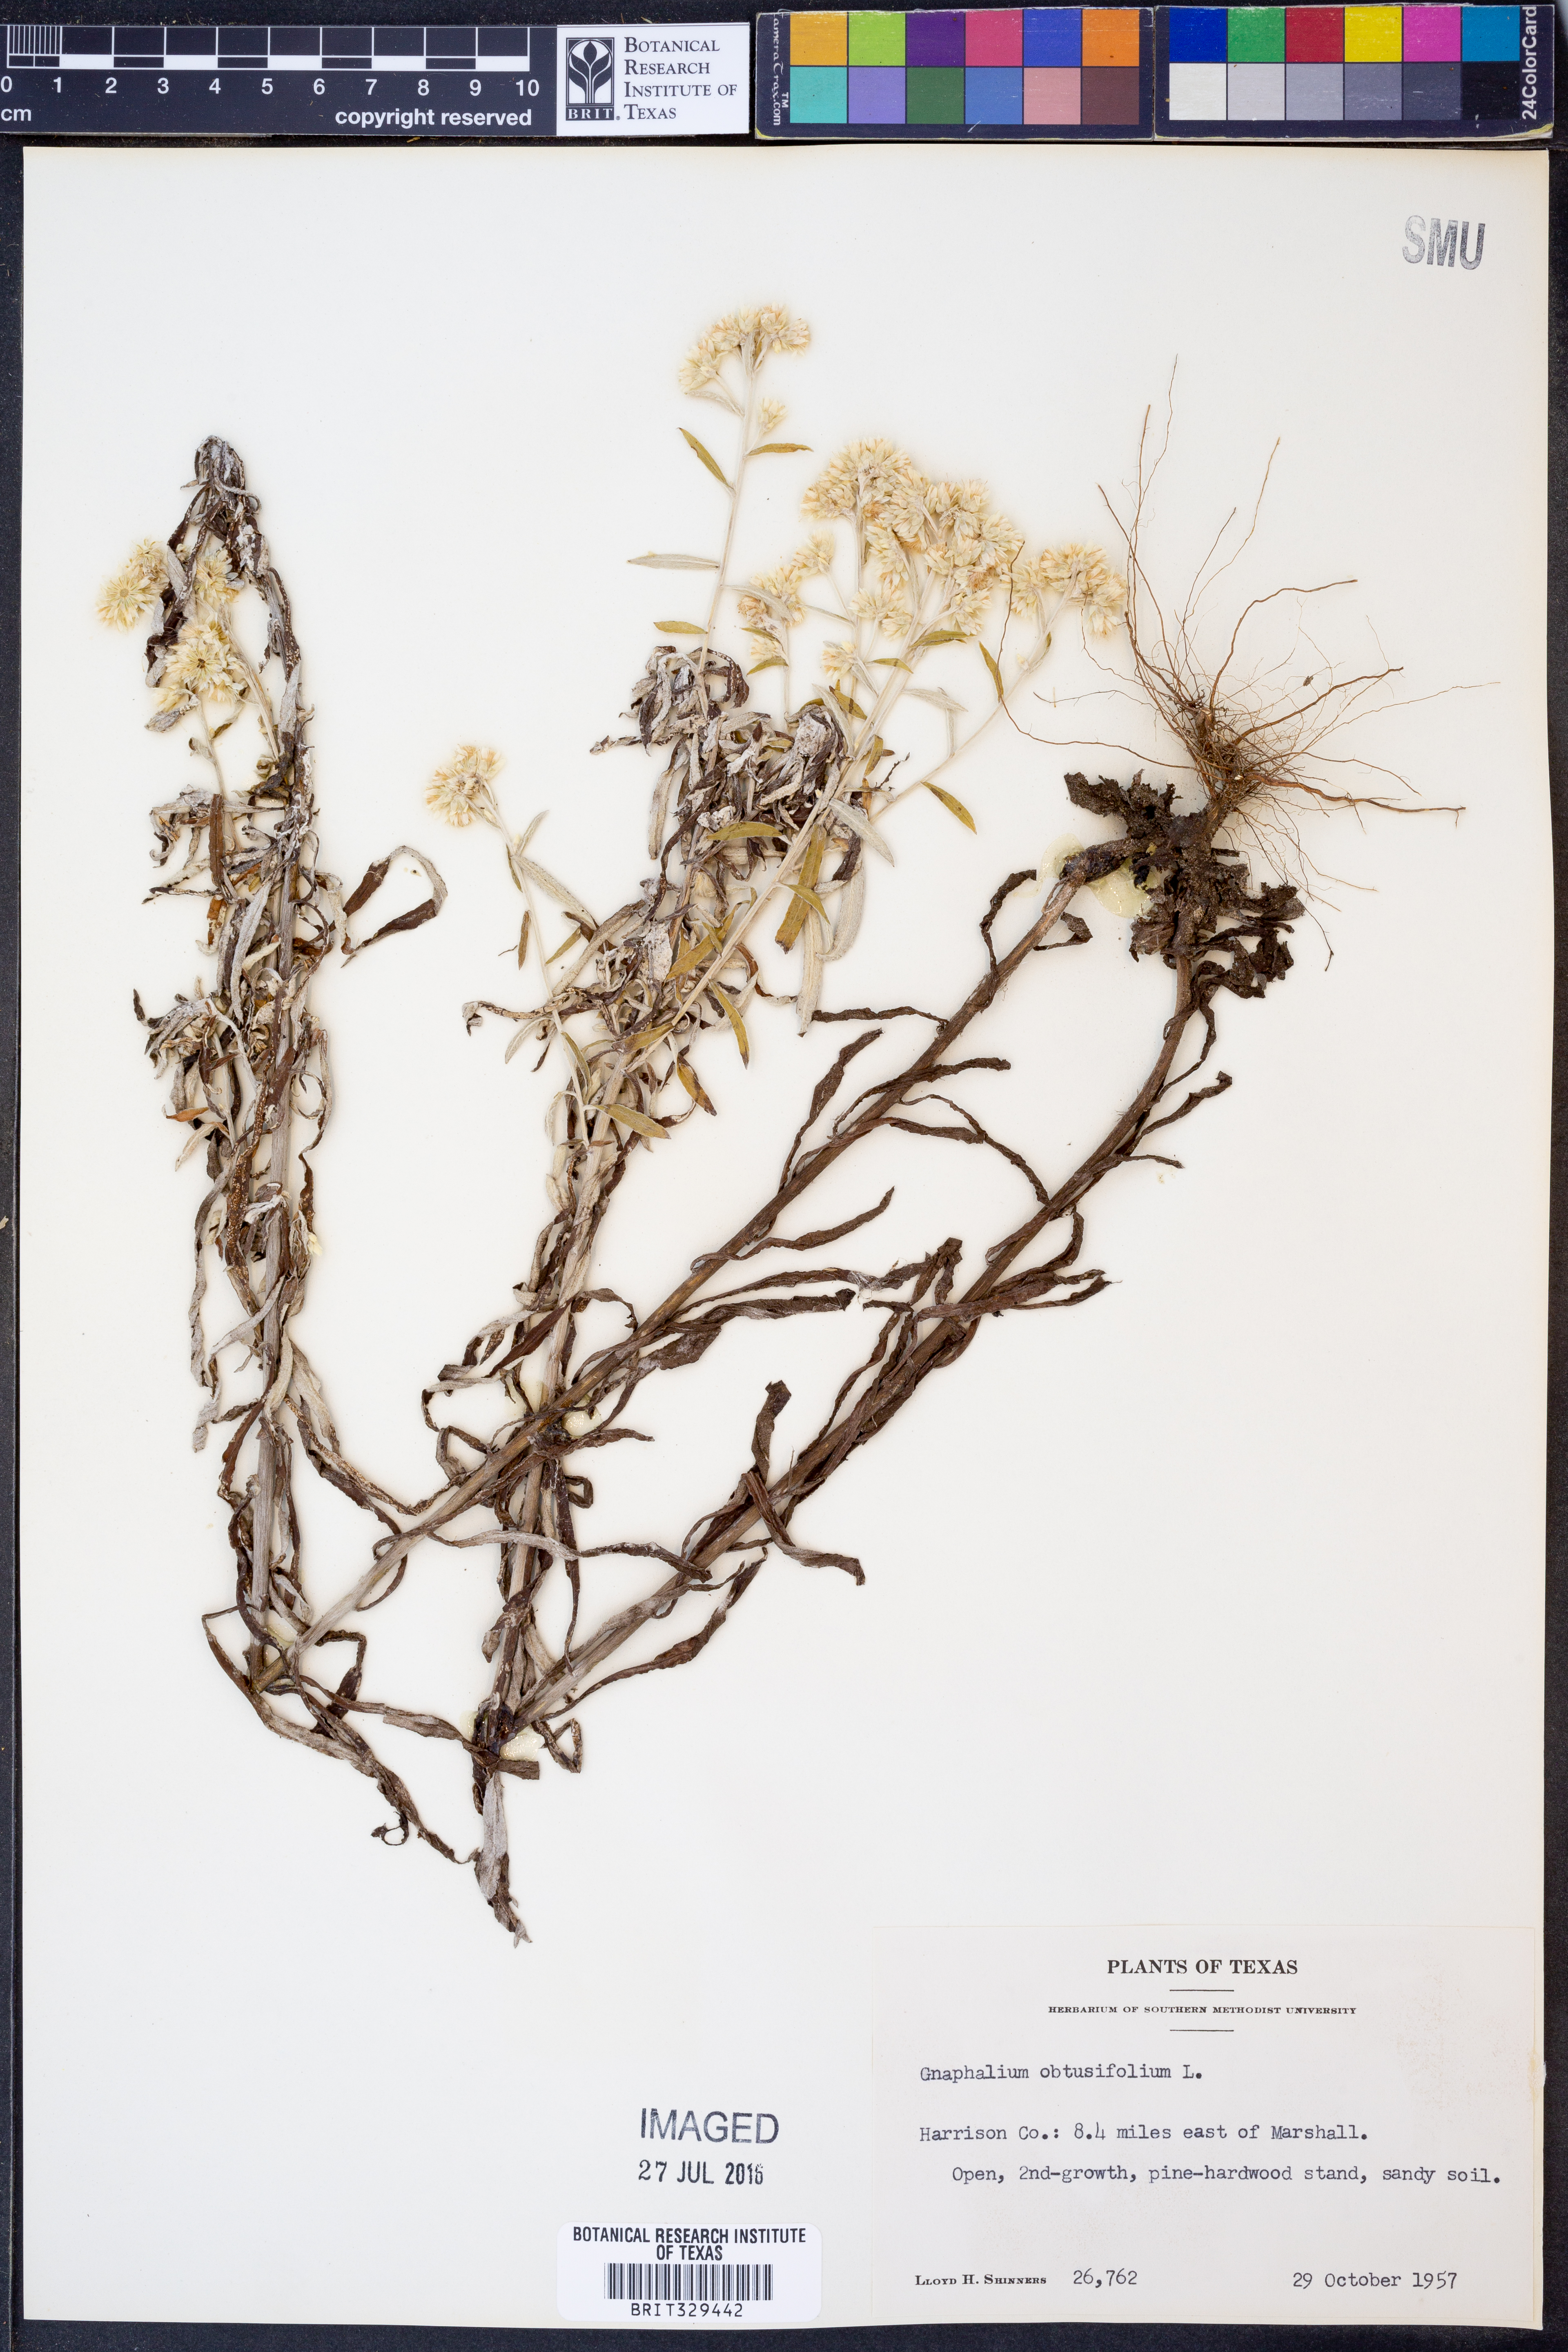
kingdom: Plantae
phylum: Tracheophyta
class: Magnoliopsida
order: Asterales
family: Asteraceae
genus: Pseudognaphalium
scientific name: Pseudognaphalium obtusifolium
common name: Eastern rabbit-tobacco
